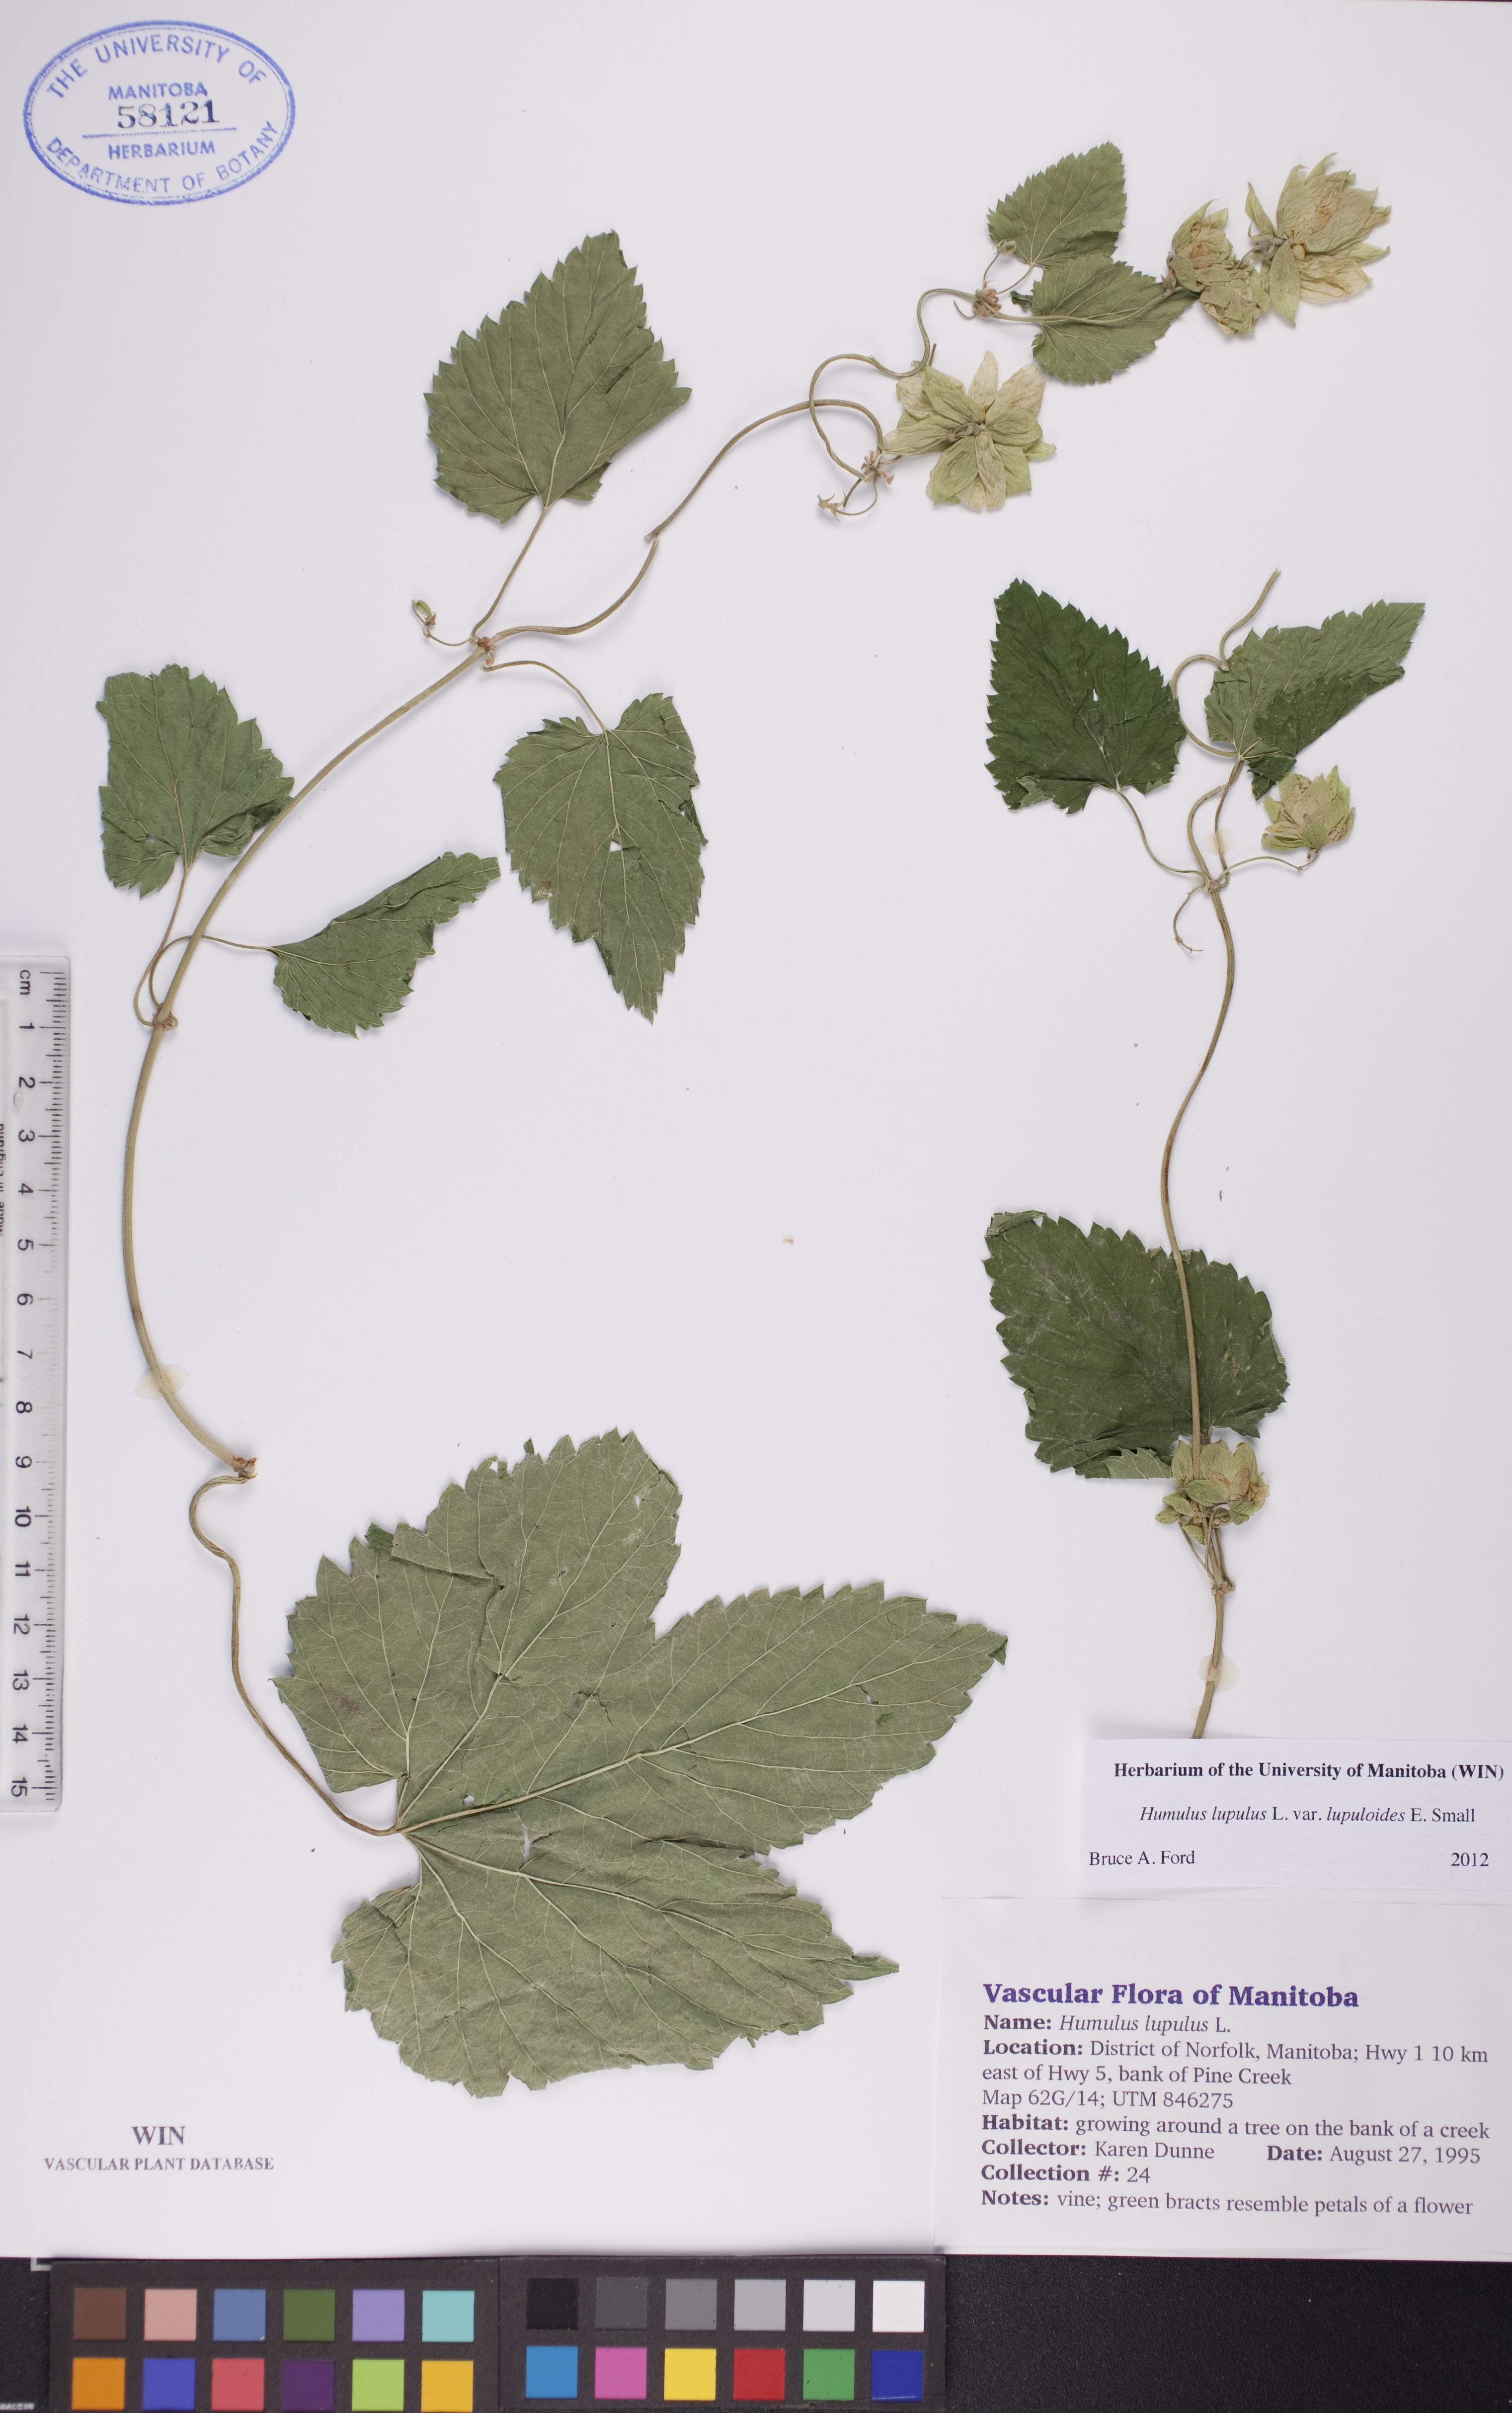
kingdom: Plantae
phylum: Tracheophyta
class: Magnoliopsida
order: Rosales
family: Cannabaceae
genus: Humulus
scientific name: Humulus americanus
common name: American hops
